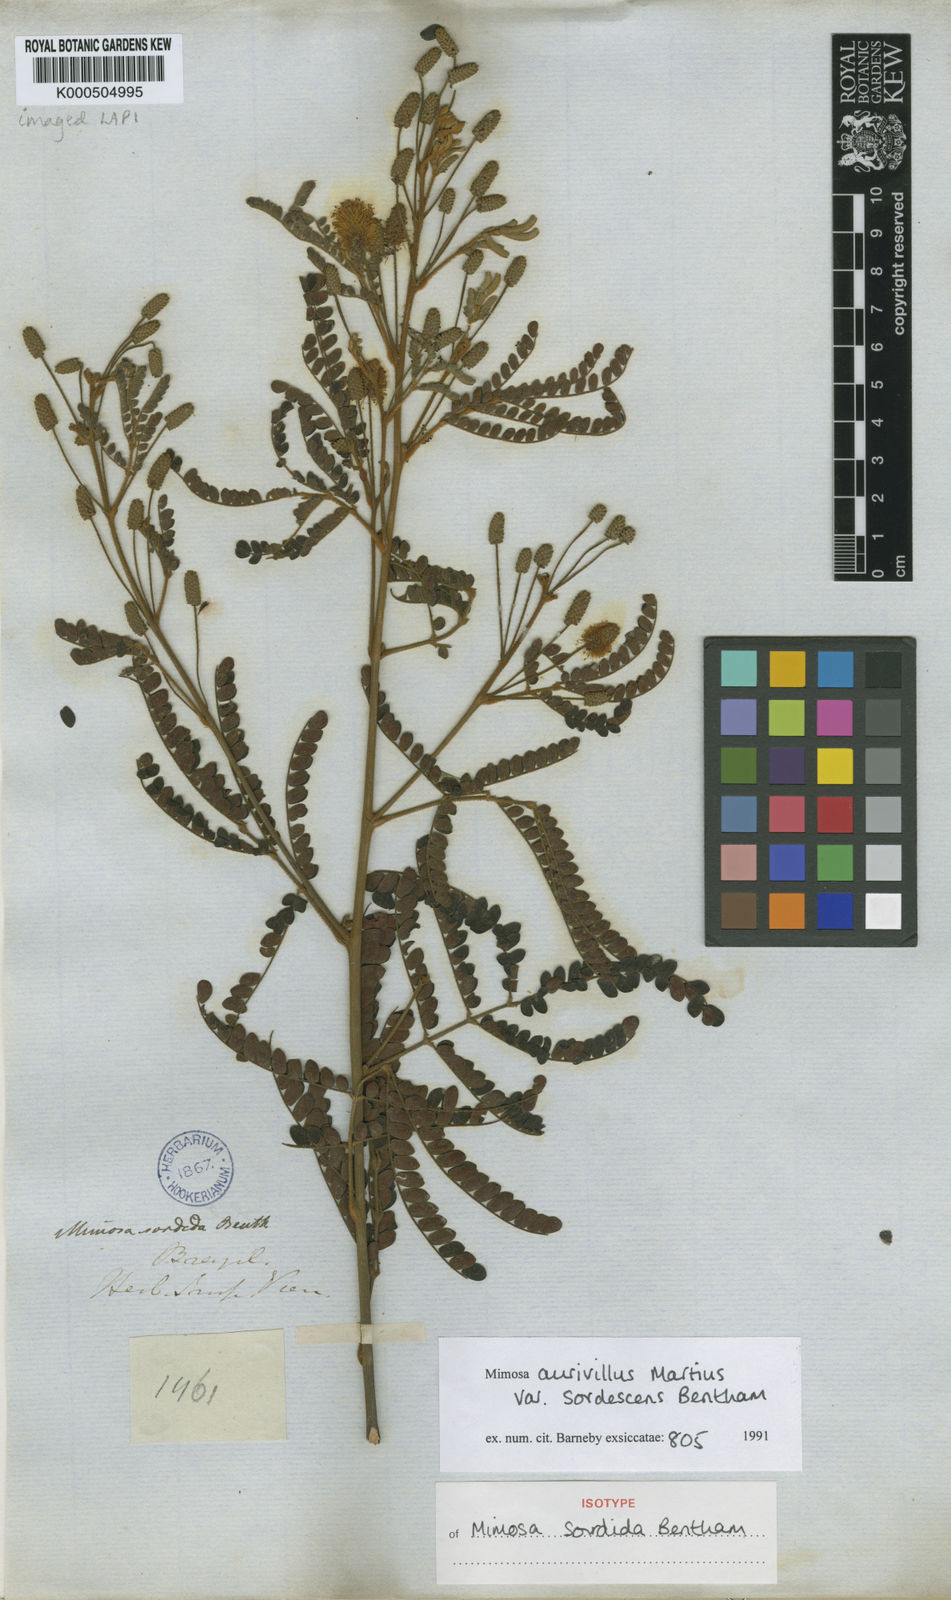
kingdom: Plantae
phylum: Tracheophyta
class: Magnoliopsida
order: Fabales
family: Fabaceae
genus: Mimosa
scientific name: Mimosa aurivillus
